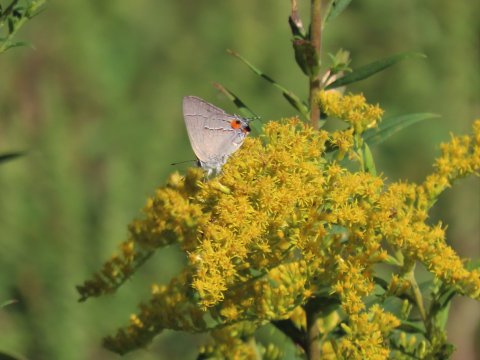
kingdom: Animalia
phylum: Arthropoda
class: Insecta
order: Lepidoptera
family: Lycaenidae
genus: Strymon
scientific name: Strymon melinus
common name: Gray Hairstreak
